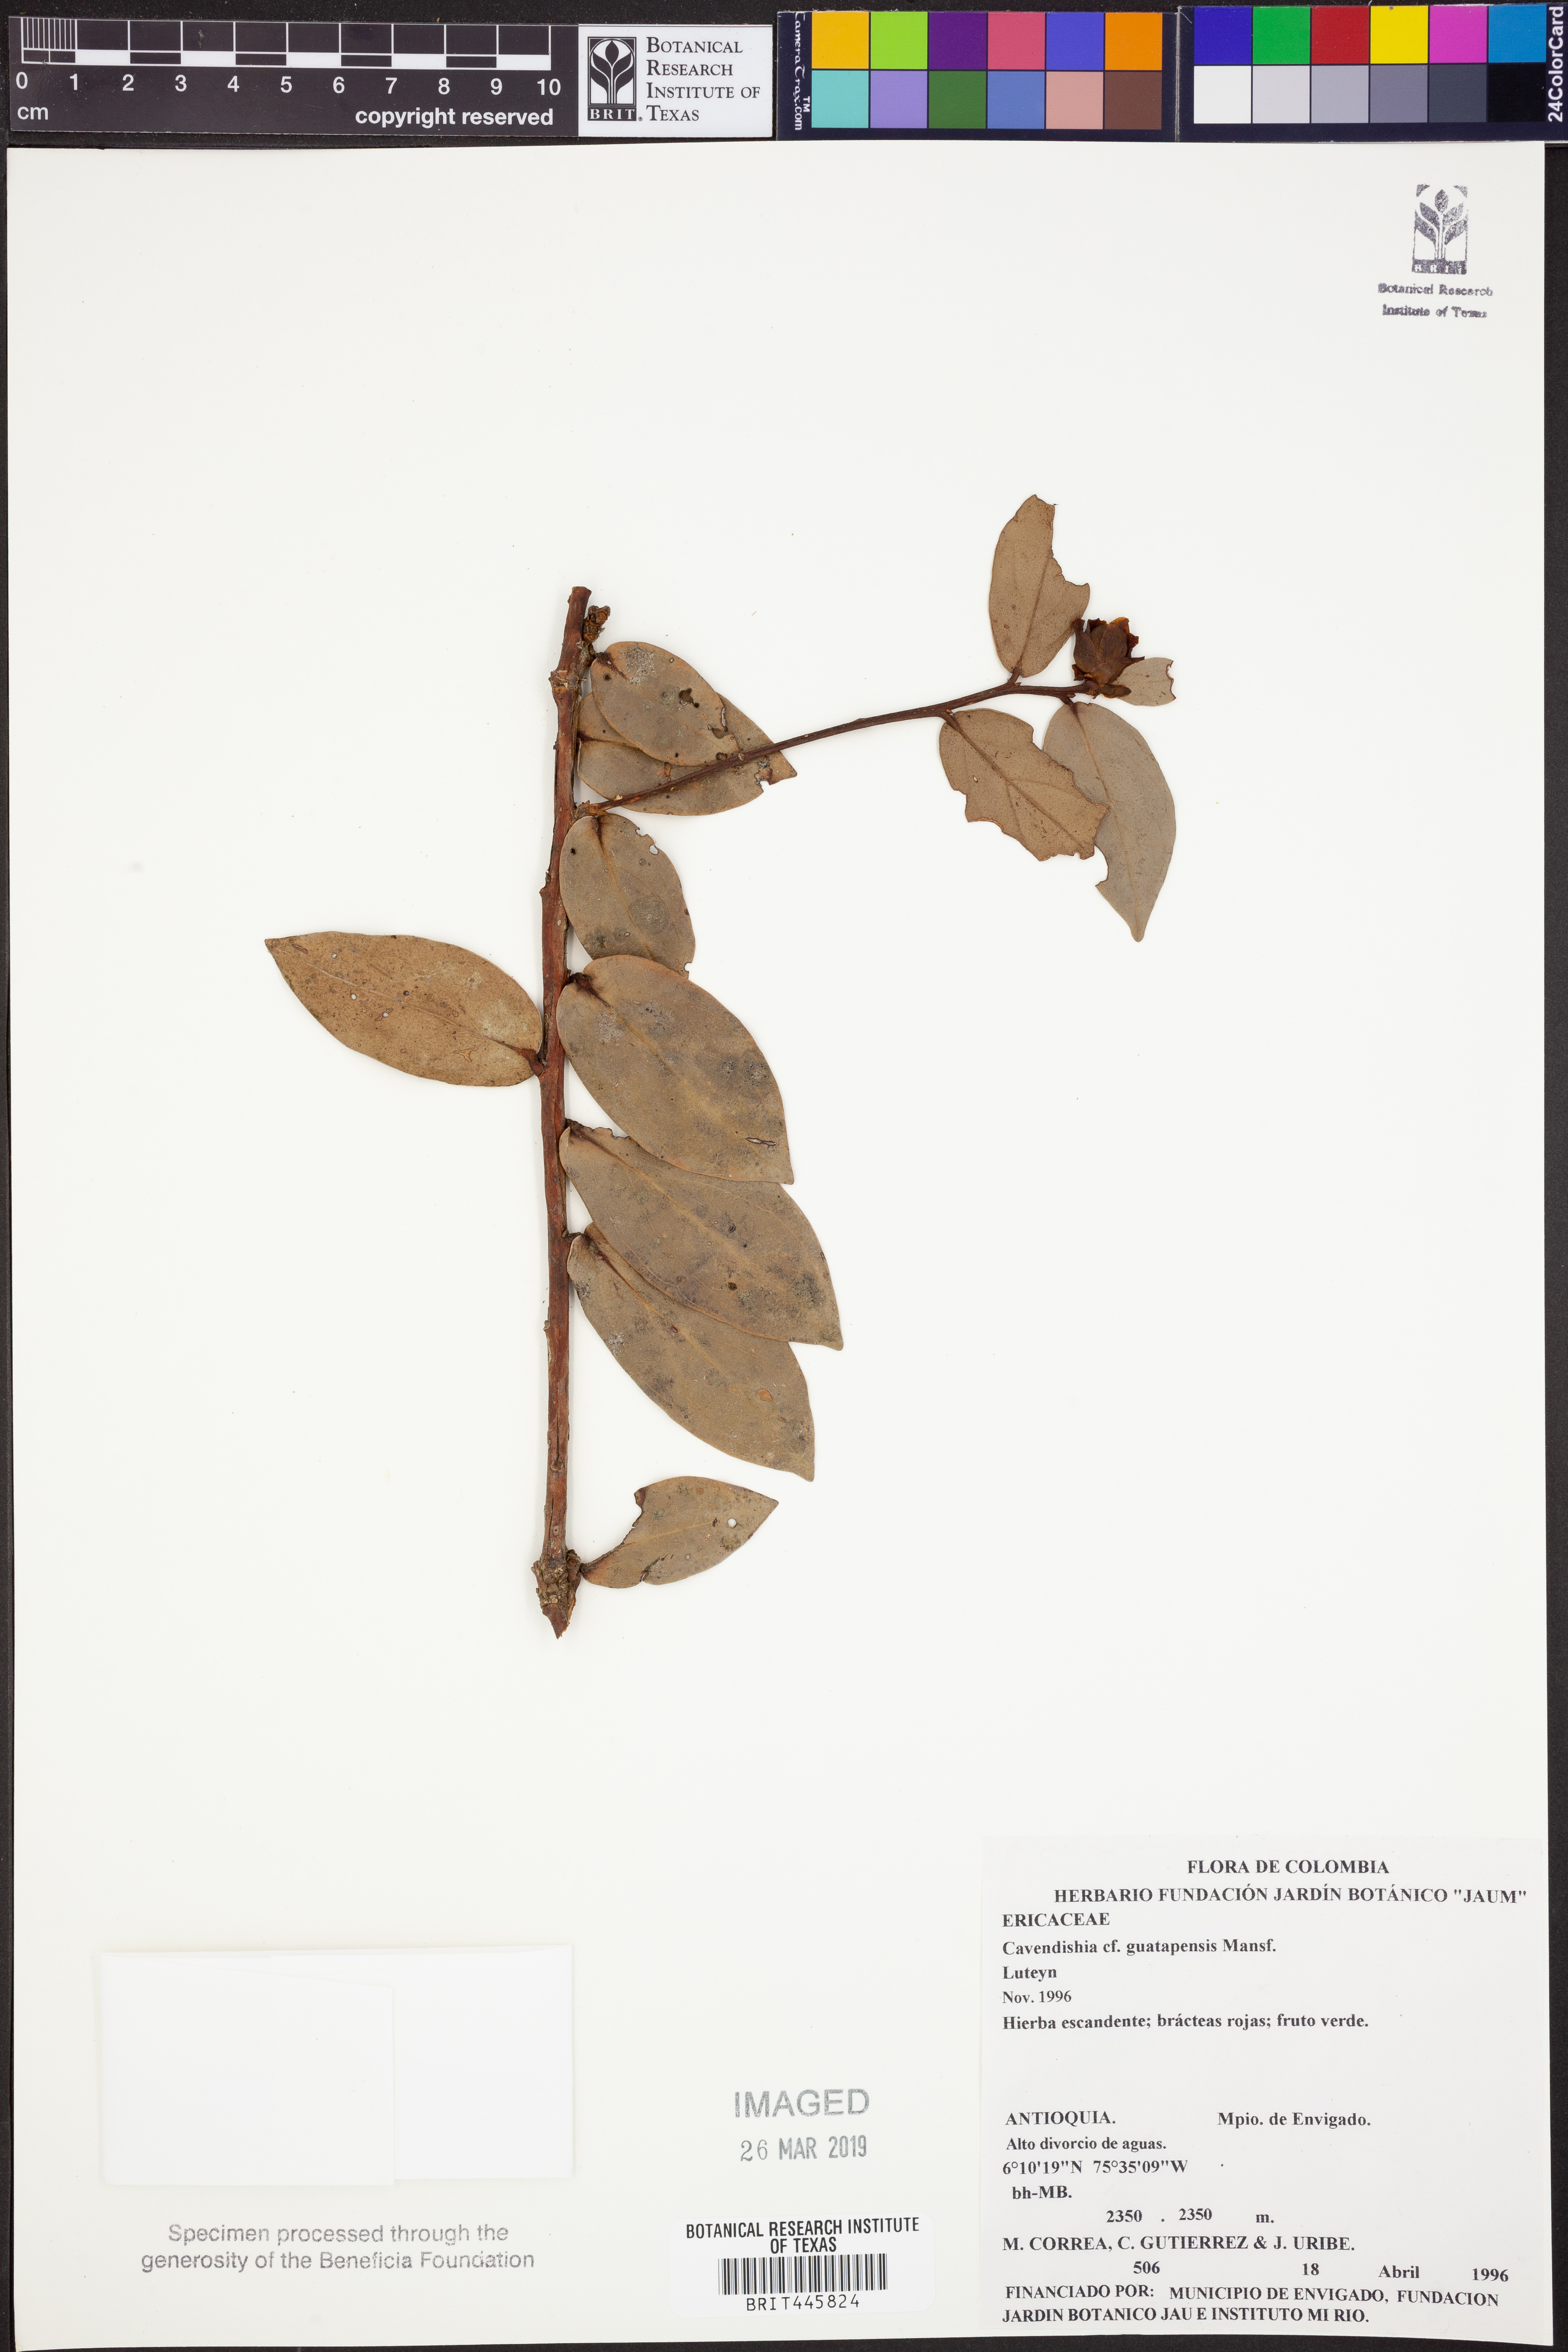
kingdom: Plantae
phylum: Tracheophyta
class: Magnoliopsida
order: Ericales
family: Ericaceae
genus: Cavendishia
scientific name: Cavendishia guatapeensis
